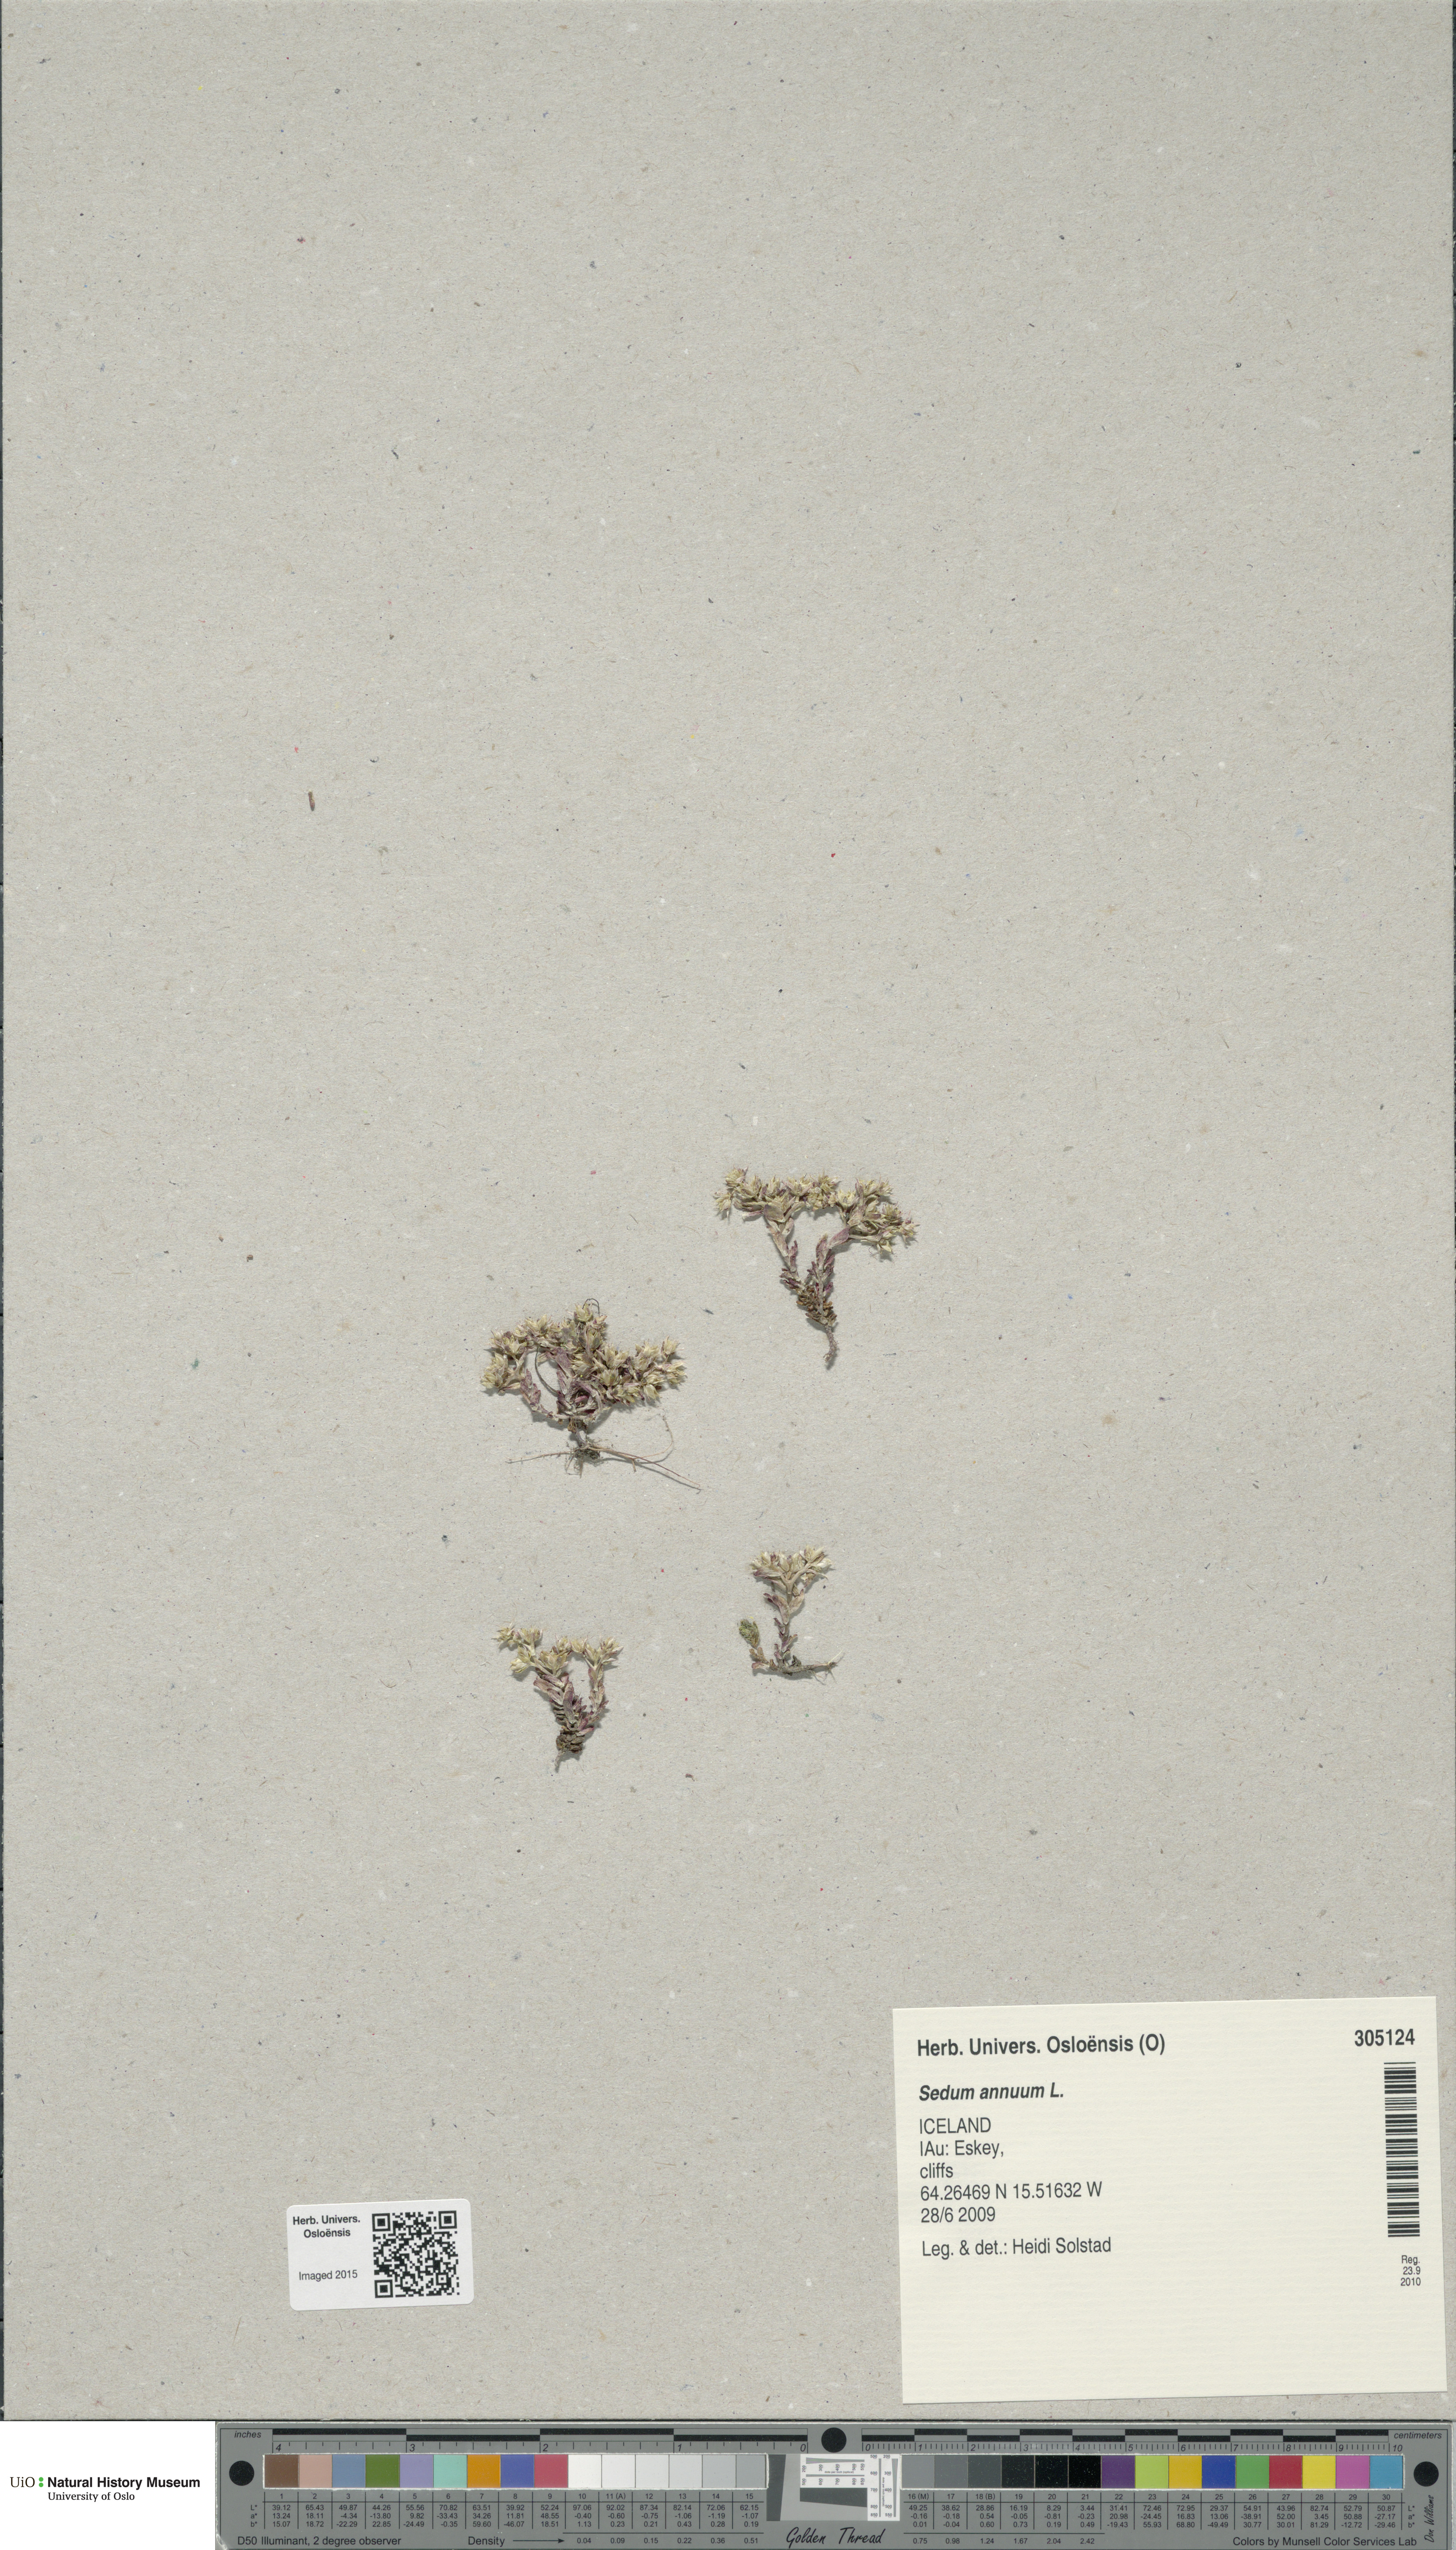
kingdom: Plantae
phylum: Tracheophyta
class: Magnoliopsida
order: Saxifragales
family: Crassulaceae
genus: Sedum
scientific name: Sedum annuum
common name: Annual stonecrop
